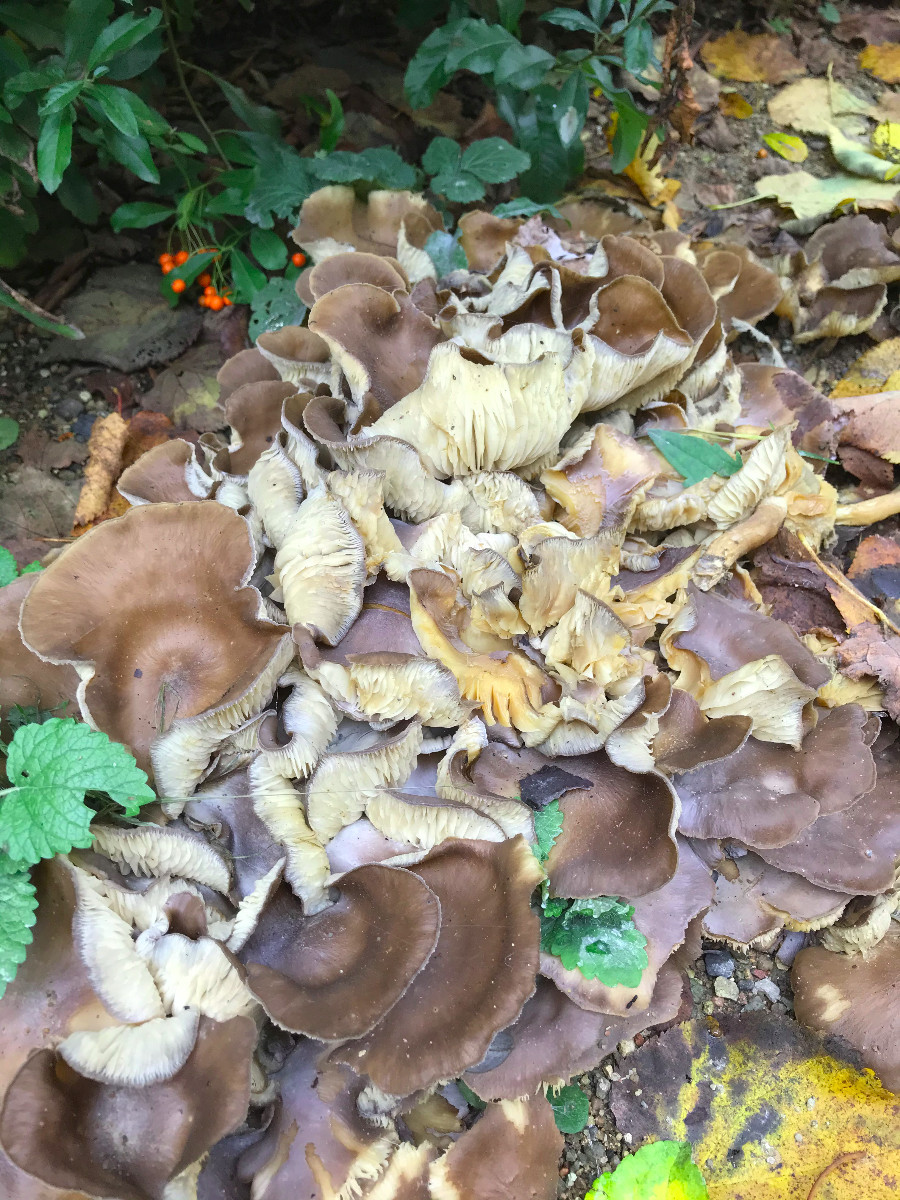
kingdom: Fungi
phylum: Basidiomycota
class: Agaricomycetes
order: Agaricales
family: Lyophyllaceae
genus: Lyophyllum
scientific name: Lyophyllum decastes
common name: røggrå gråblad
